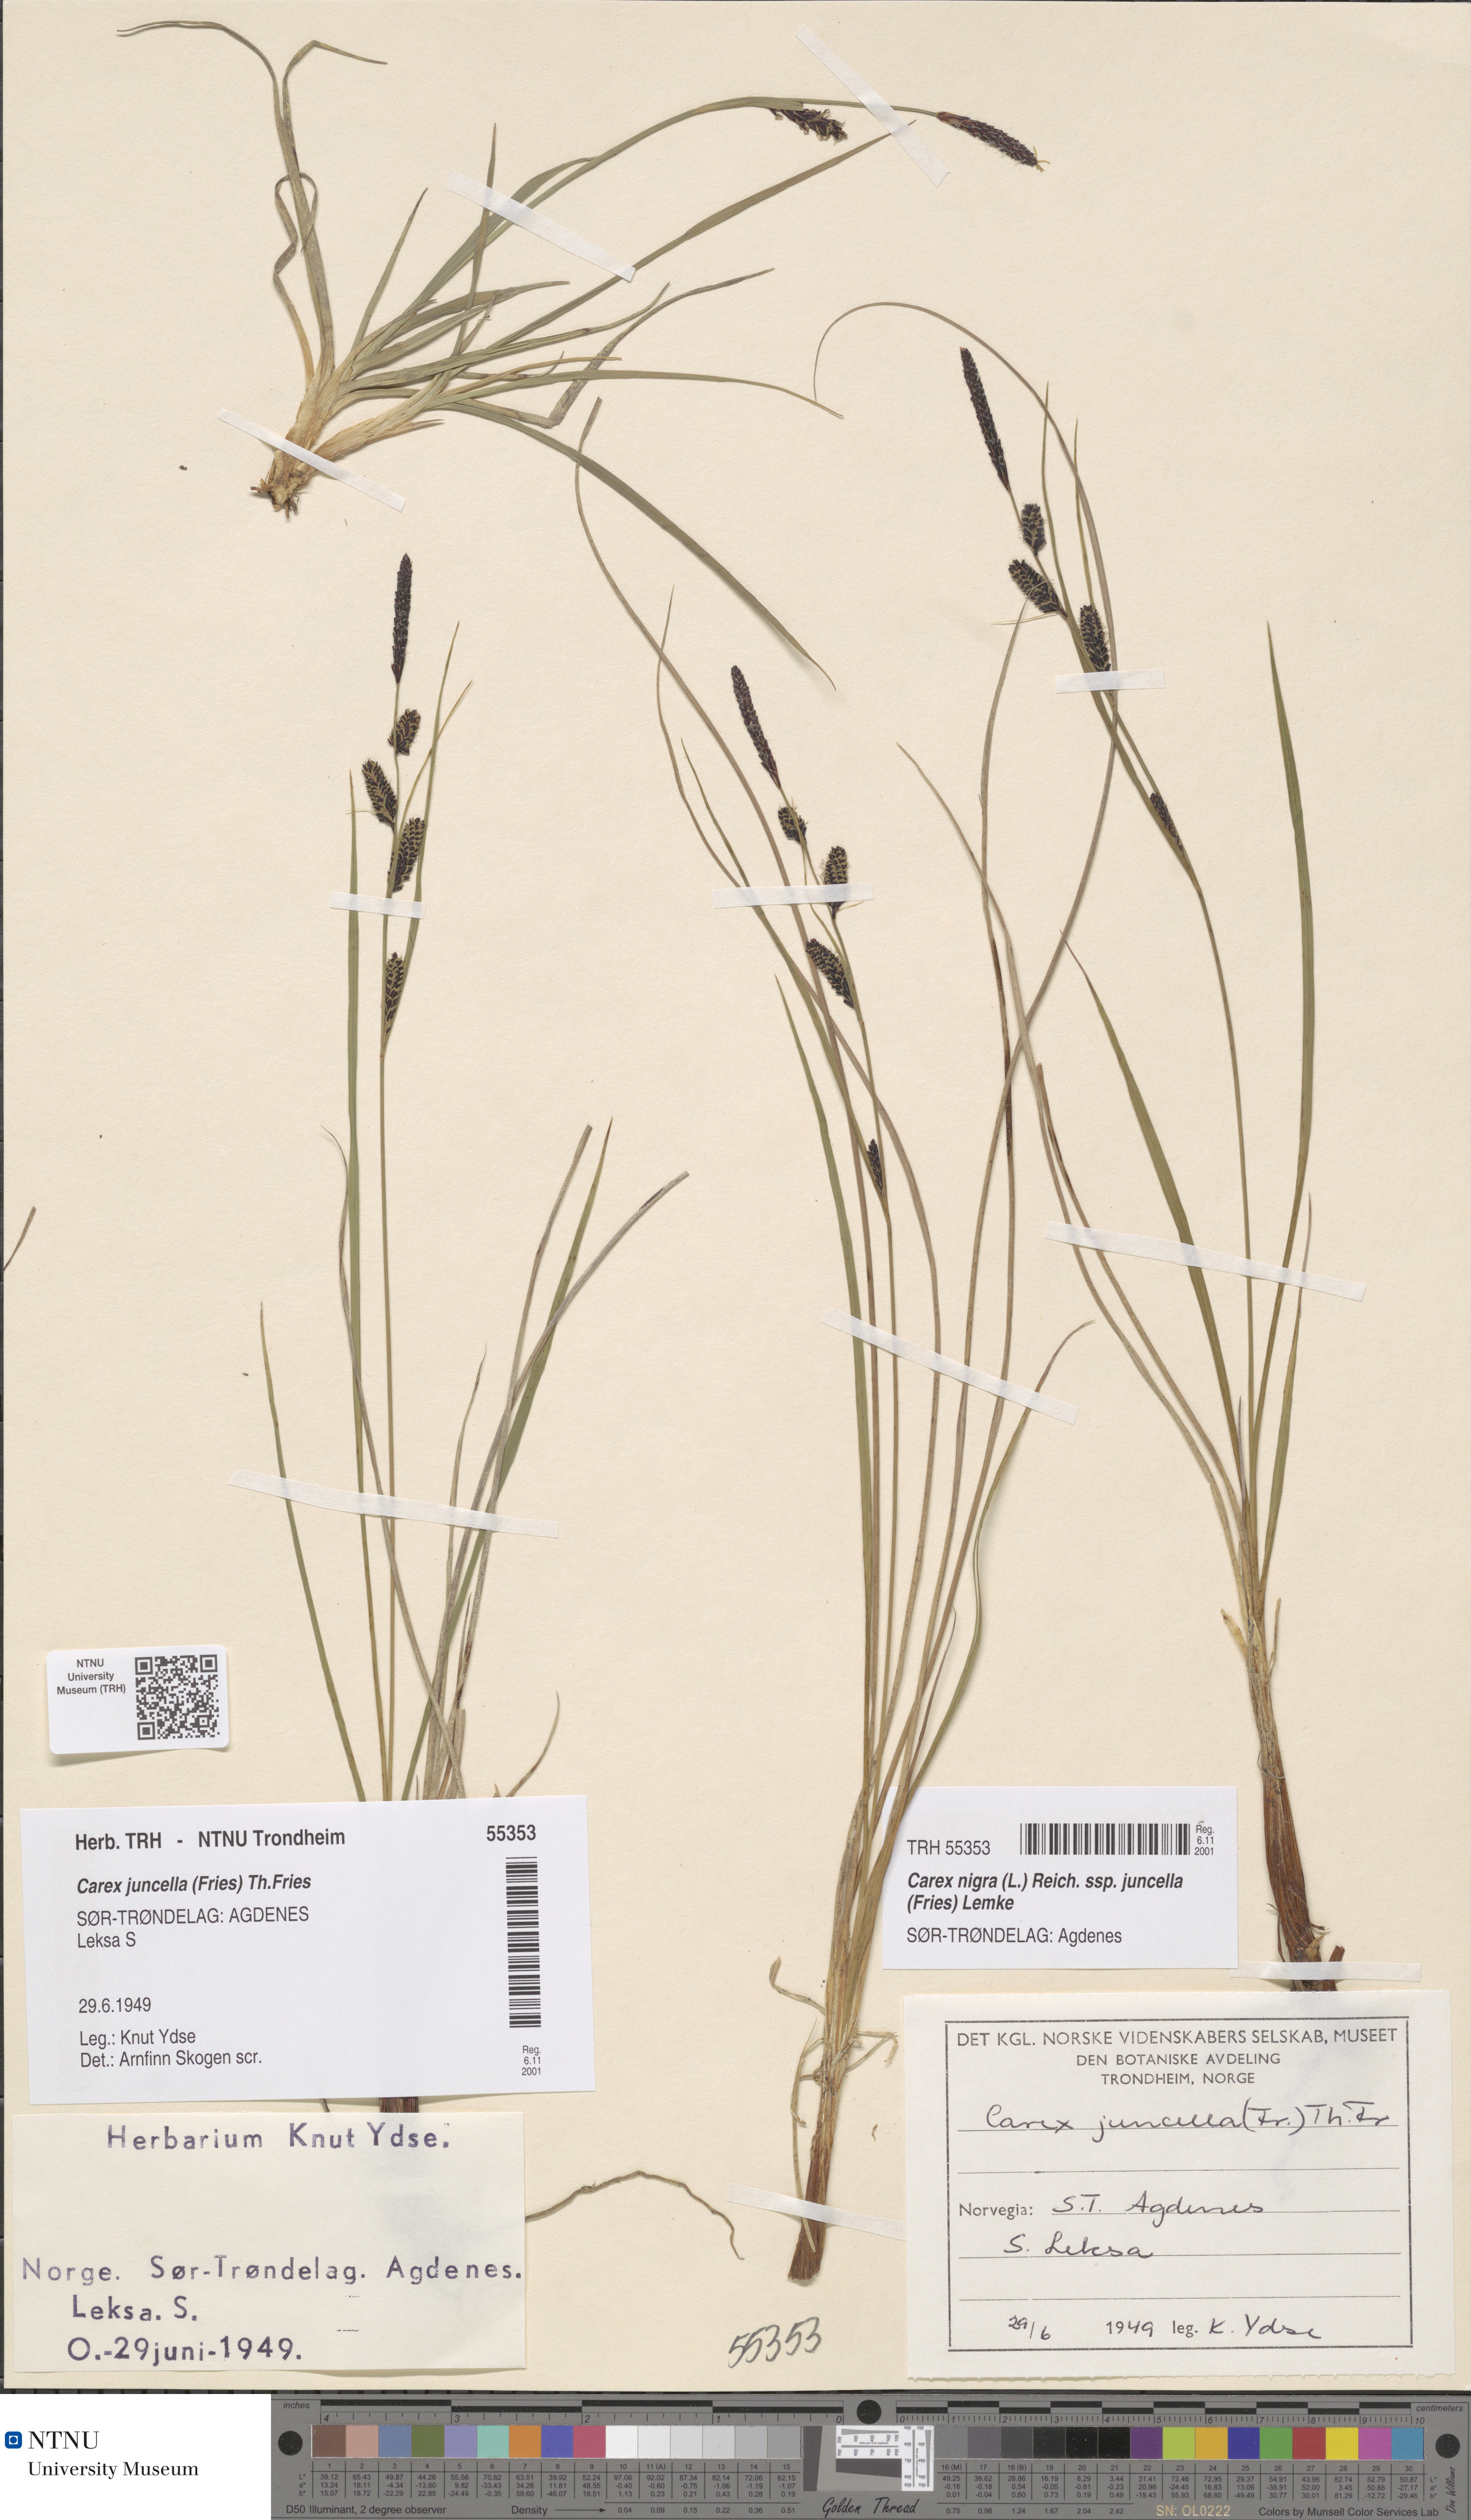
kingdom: Plantae
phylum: Tracheophyta
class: Liliopsida
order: Poales
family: Cyperaceae
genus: Carex
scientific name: Carex nigra
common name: Common sedge
